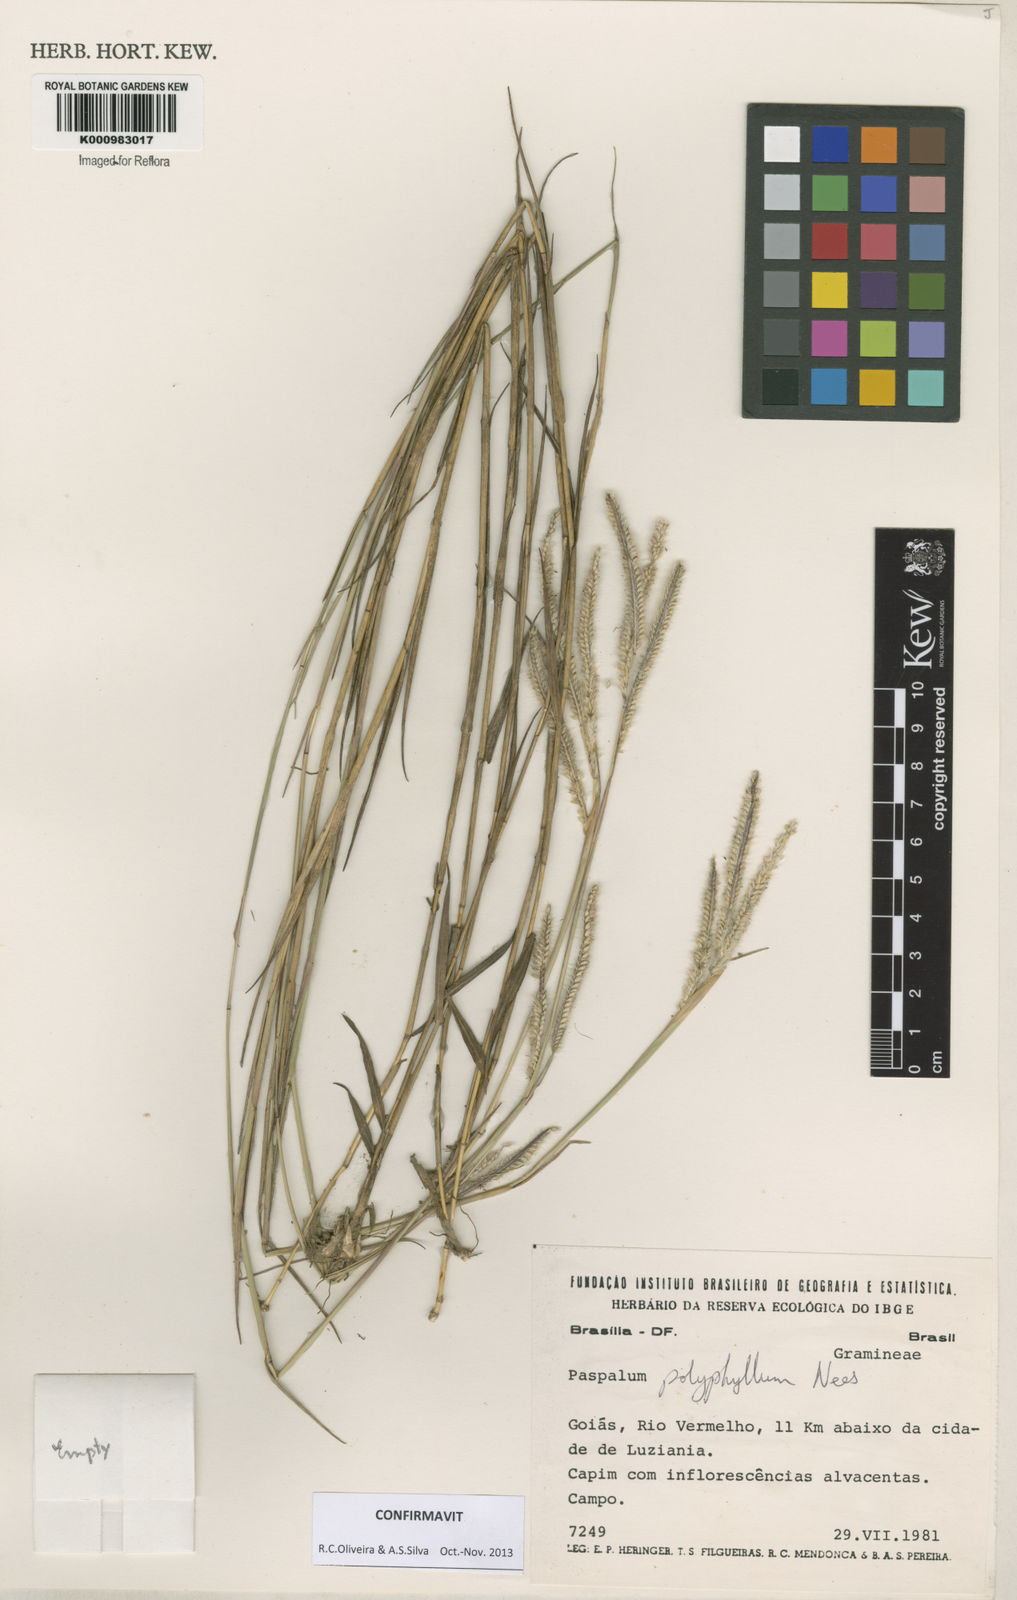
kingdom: Plantae
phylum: Tracheophyta
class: Liliopsida
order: Poales
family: Poaceae
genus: Paspalum
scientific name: Paspalum
